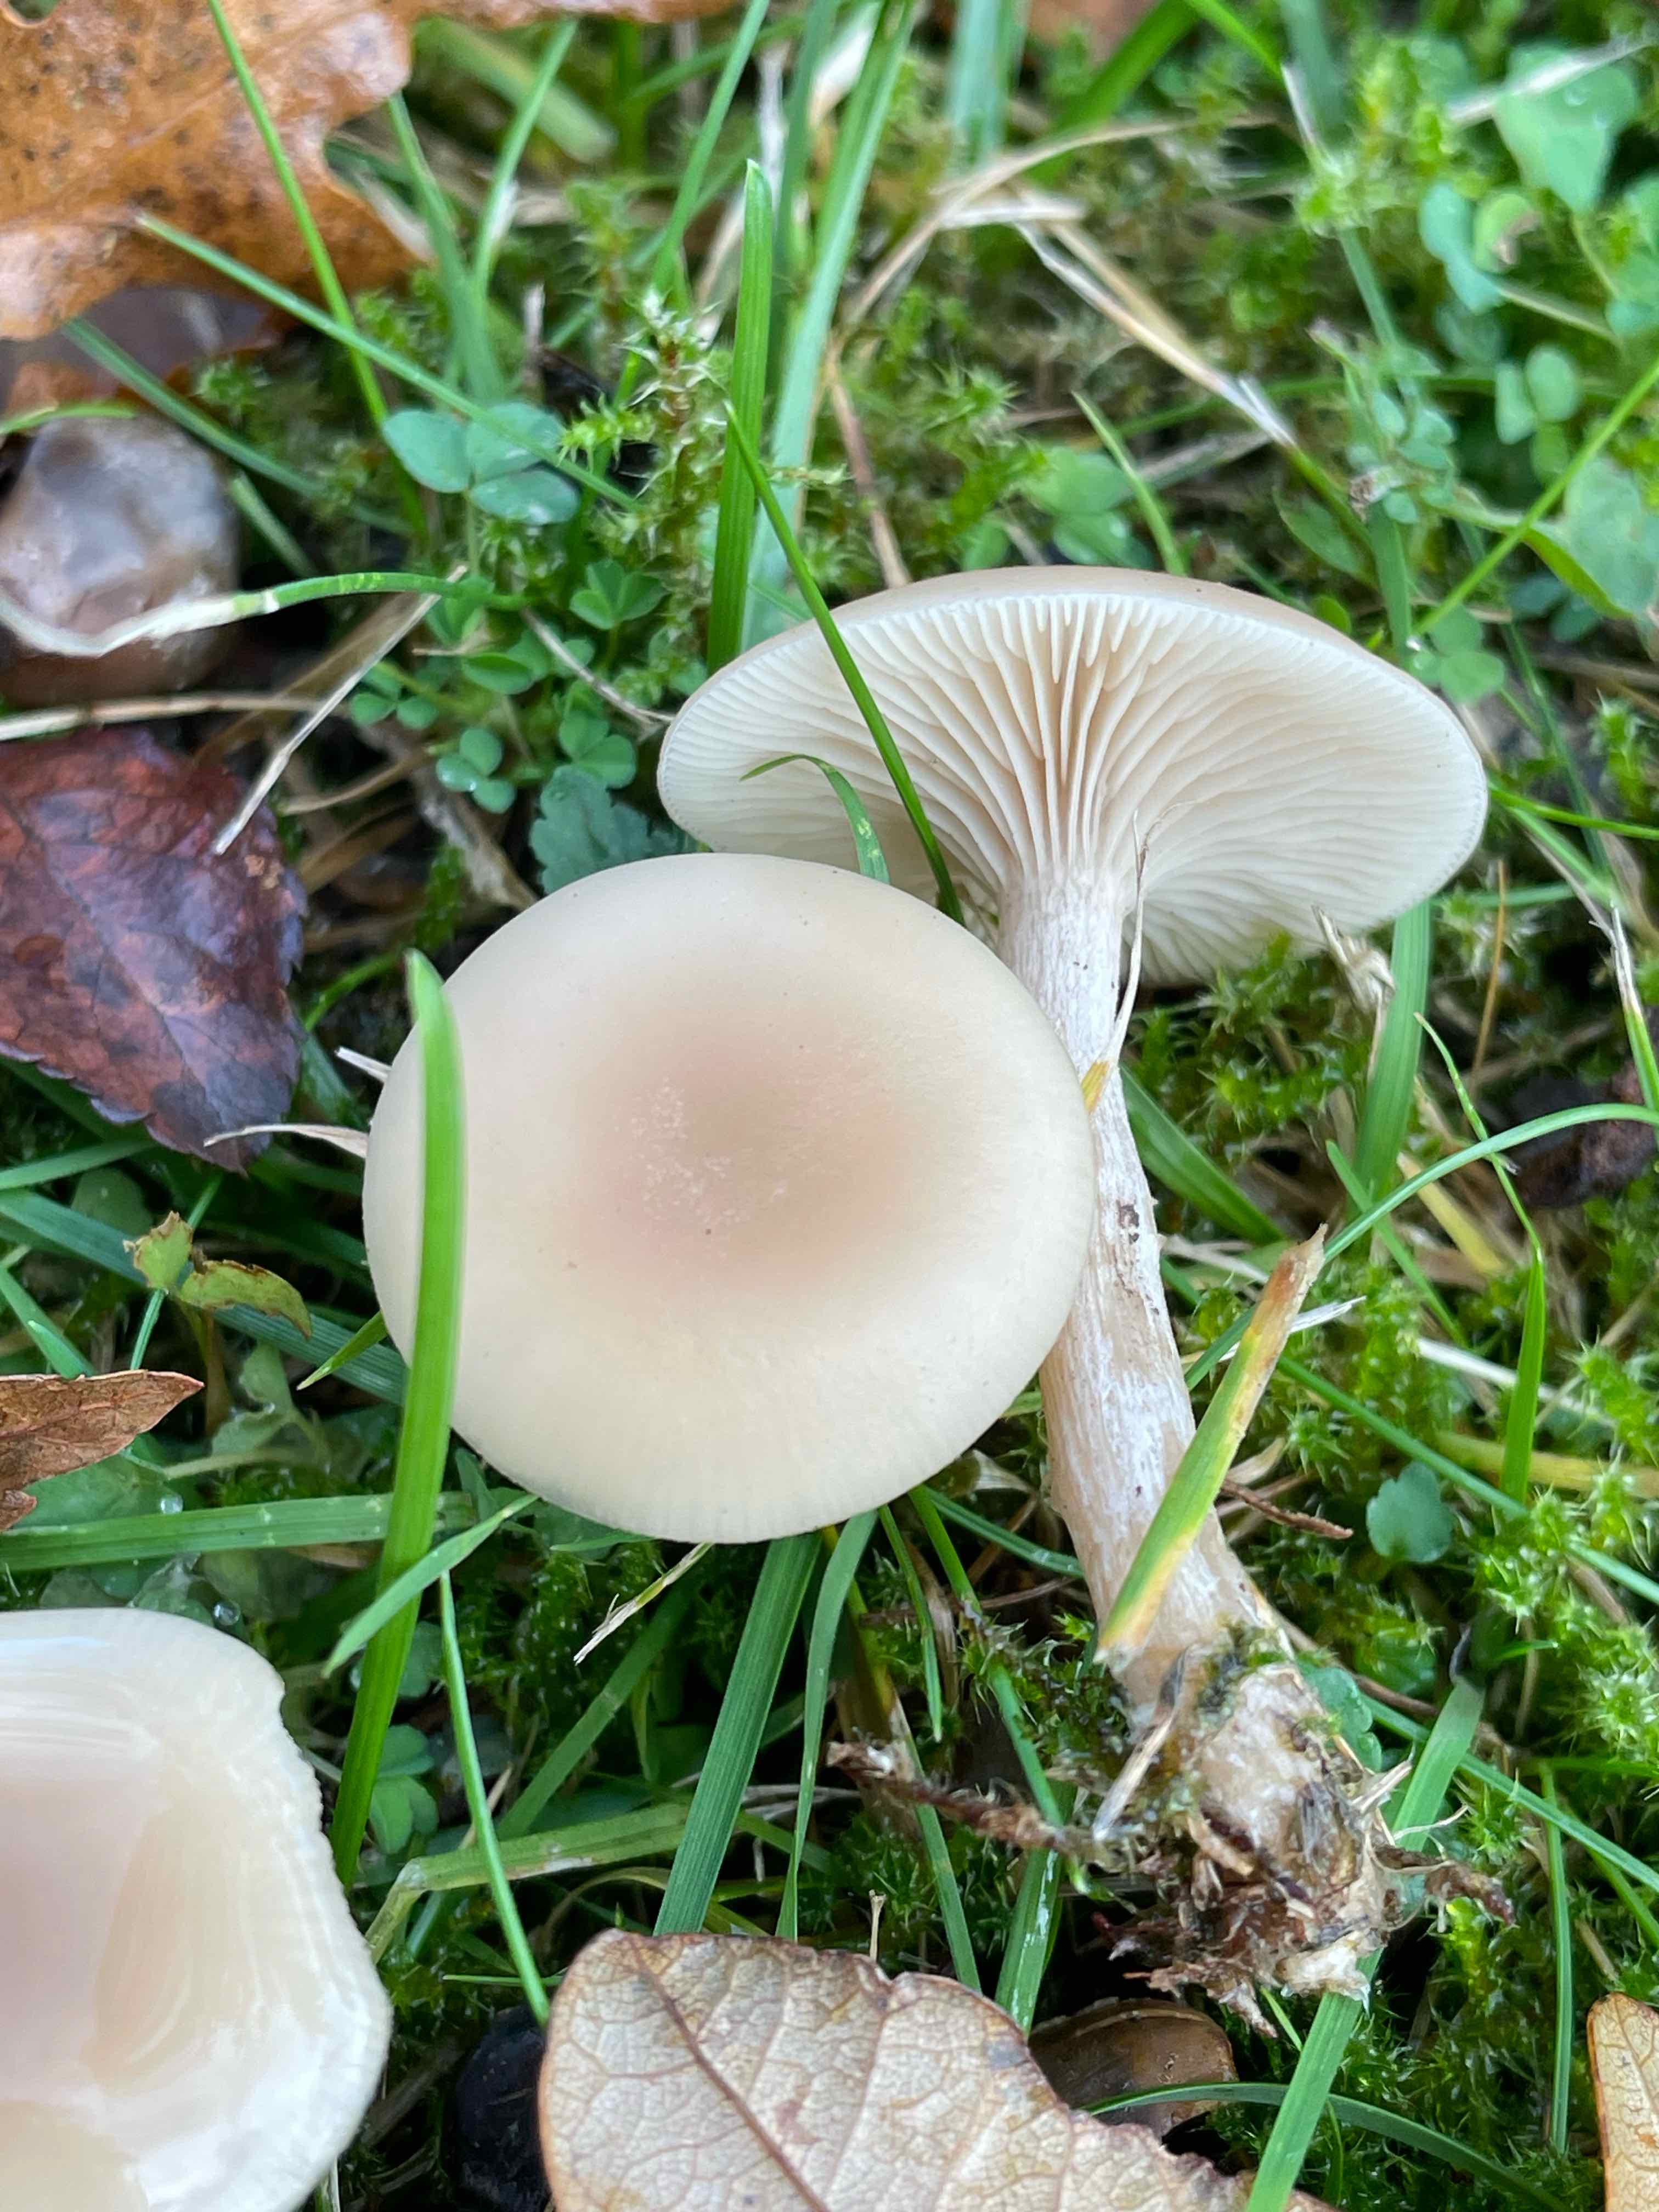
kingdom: Fungi
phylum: Basidiomycota
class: Agaricomycetes
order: Agaricales
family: Tricholomataceae
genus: Clitocybe
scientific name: Clitocybe fragrans
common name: vellugtende tragthat
